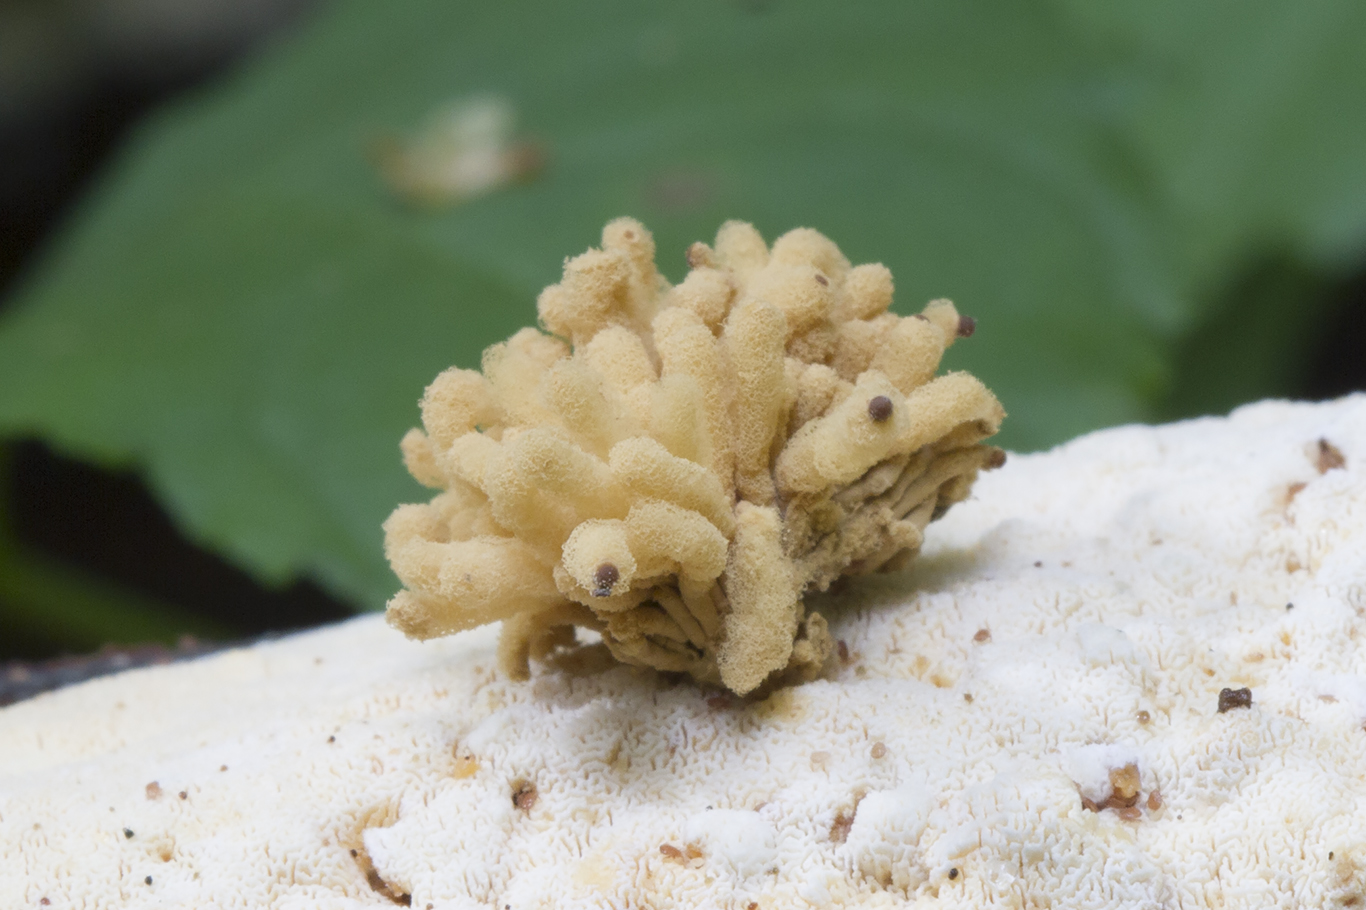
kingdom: Protozoa
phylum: Mycetozoa
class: Myxomycetes
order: Trichiales
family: Arcyriaceae
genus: Arcyria
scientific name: Arcyria obvelata
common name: okkergul skålsvøb
